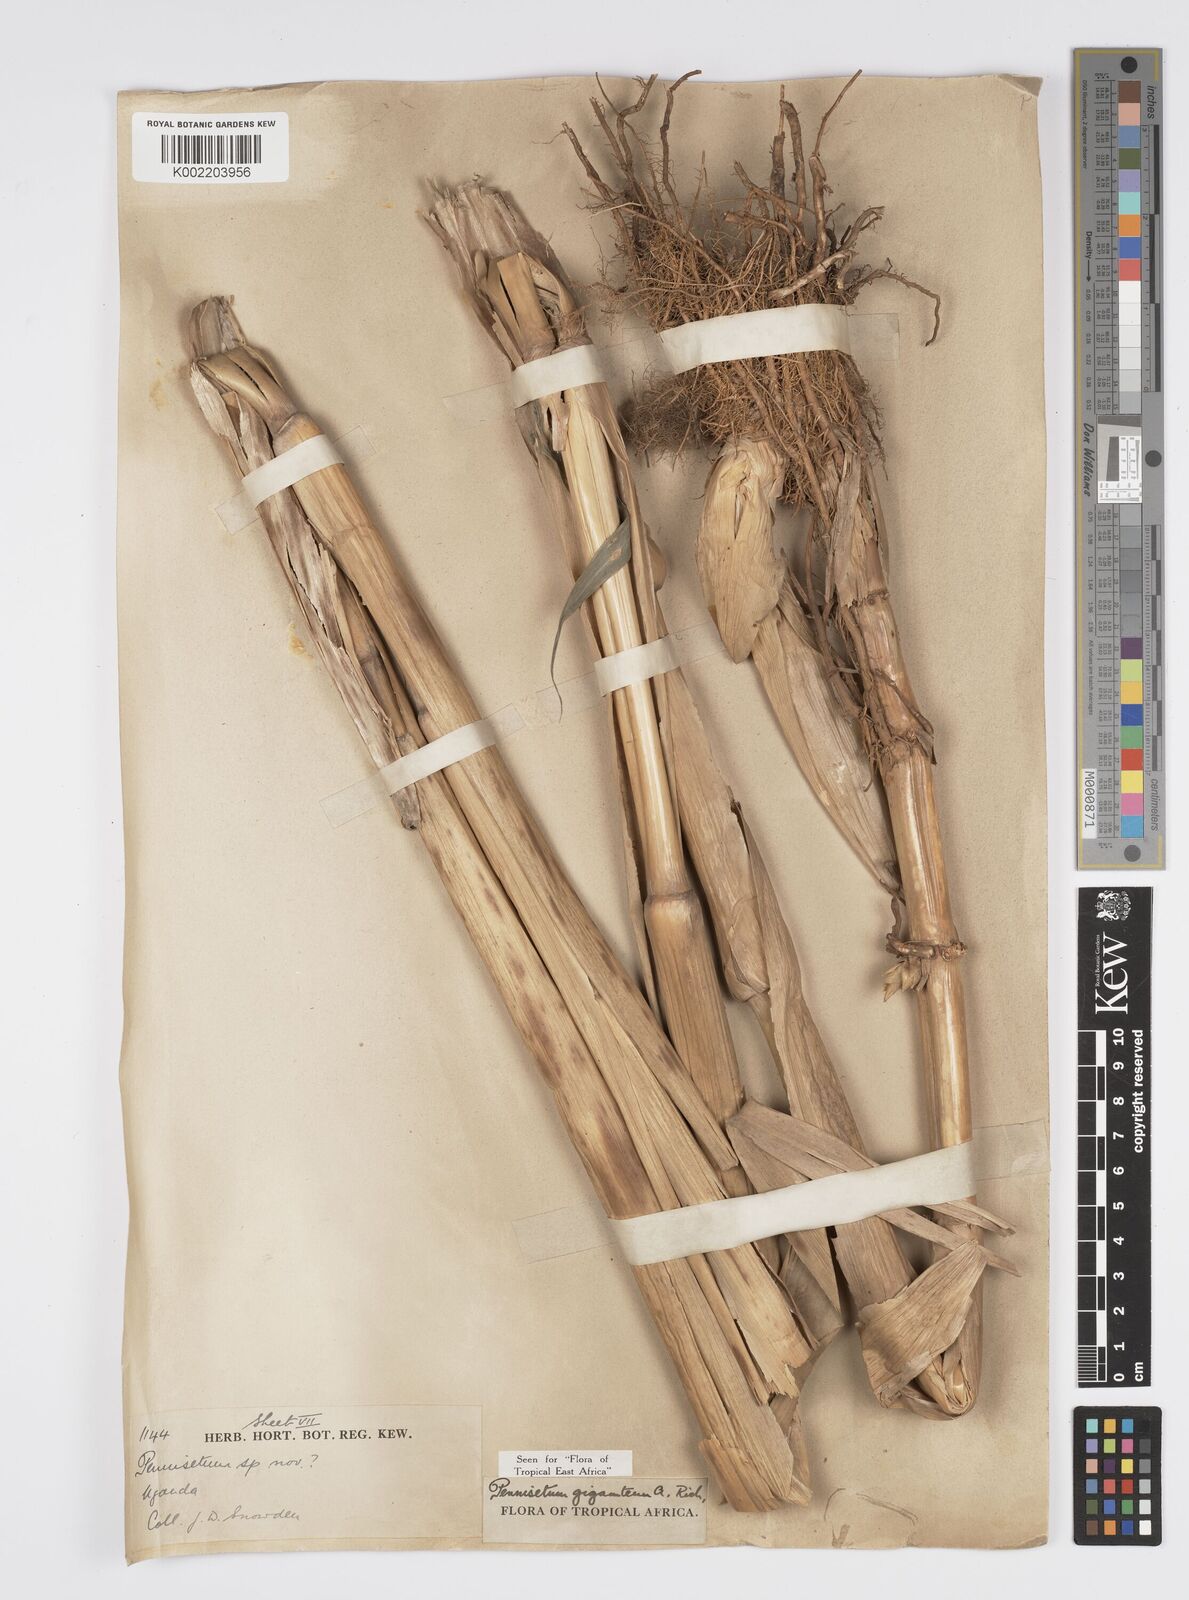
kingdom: Plantae
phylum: Tracheophyta
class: Liliopsida
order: Poales
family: Poaceae
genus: Cenchrus
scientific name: Cenchrus caudatus
